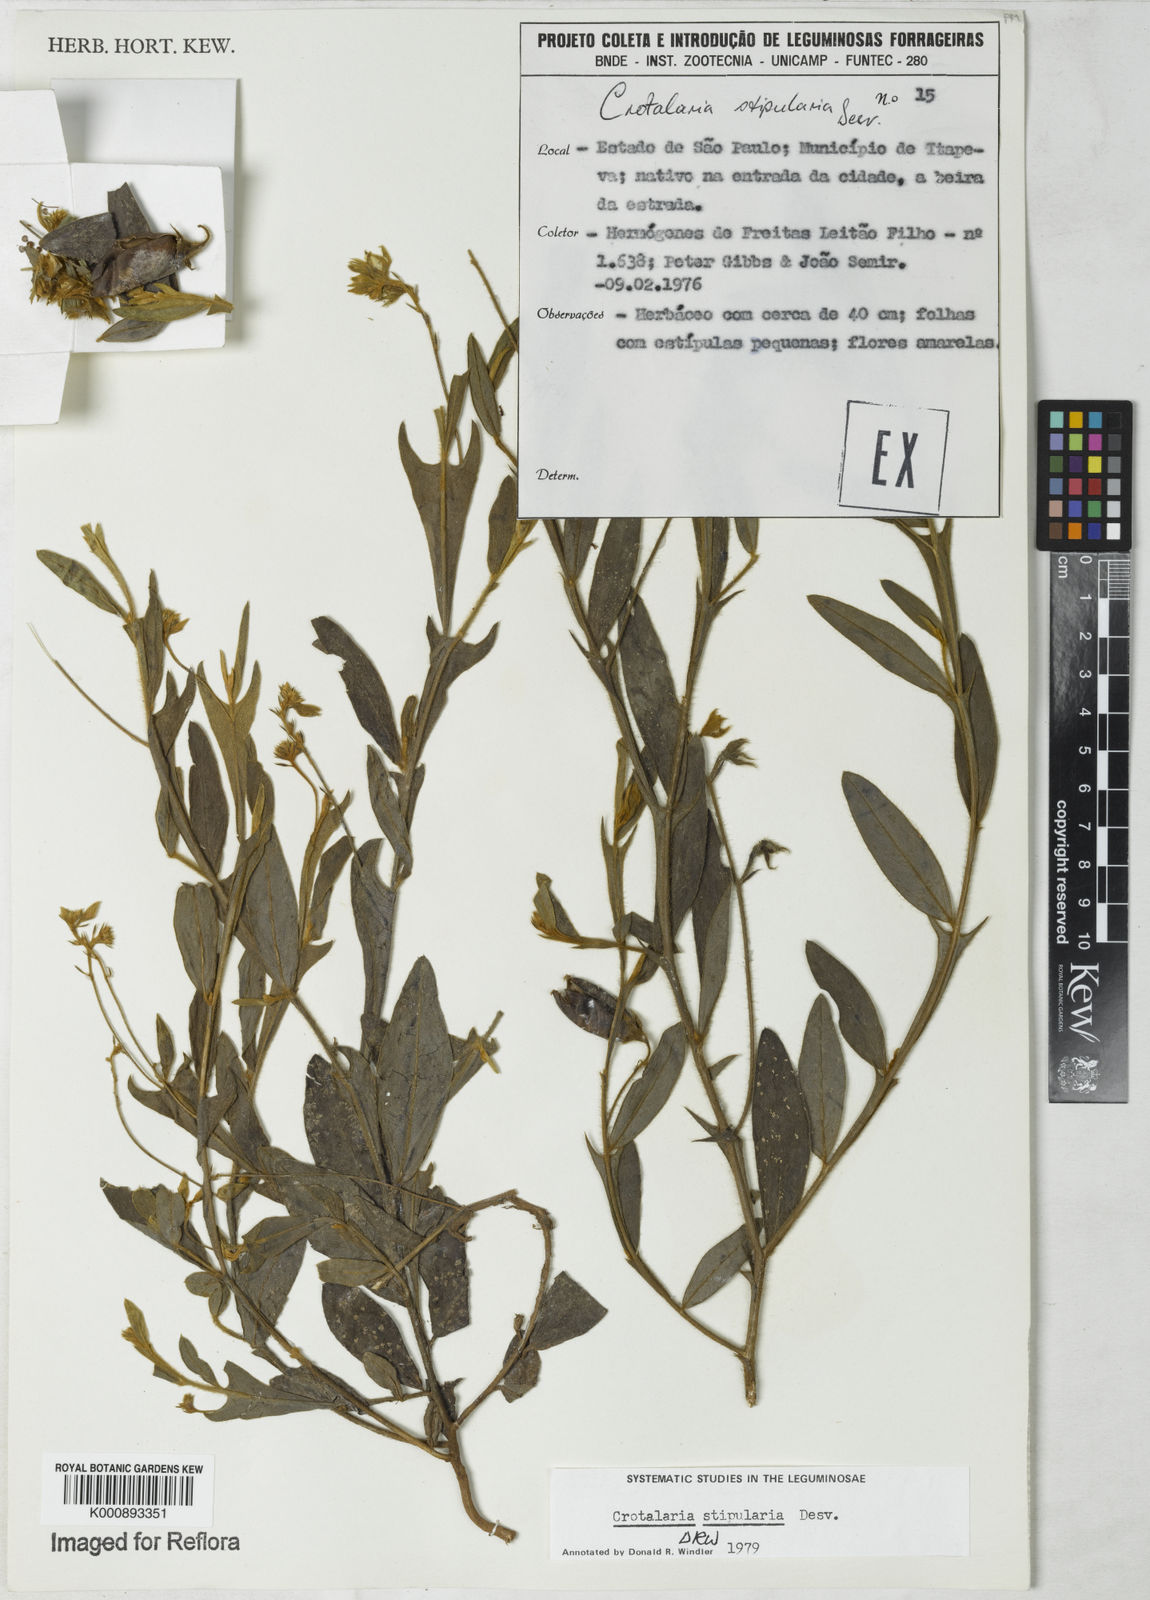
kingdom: Plantae
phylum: Tracheophyta
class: Magnoliopsida
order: Fabales
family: Fabaceae
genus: Crotalaria
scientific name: Crotalaria stipularia
